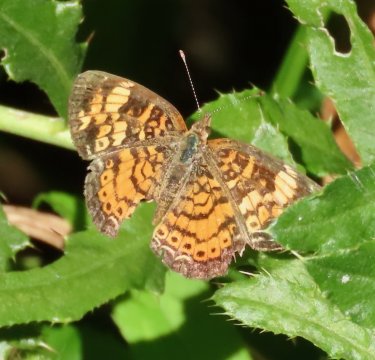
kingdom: Animalia
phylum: Arthropoda
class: Insecta
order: Lepidoptera
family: Nymphalidae
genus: Phyciodes
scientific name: Phyciodes tharos
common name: Pearl Crescent
